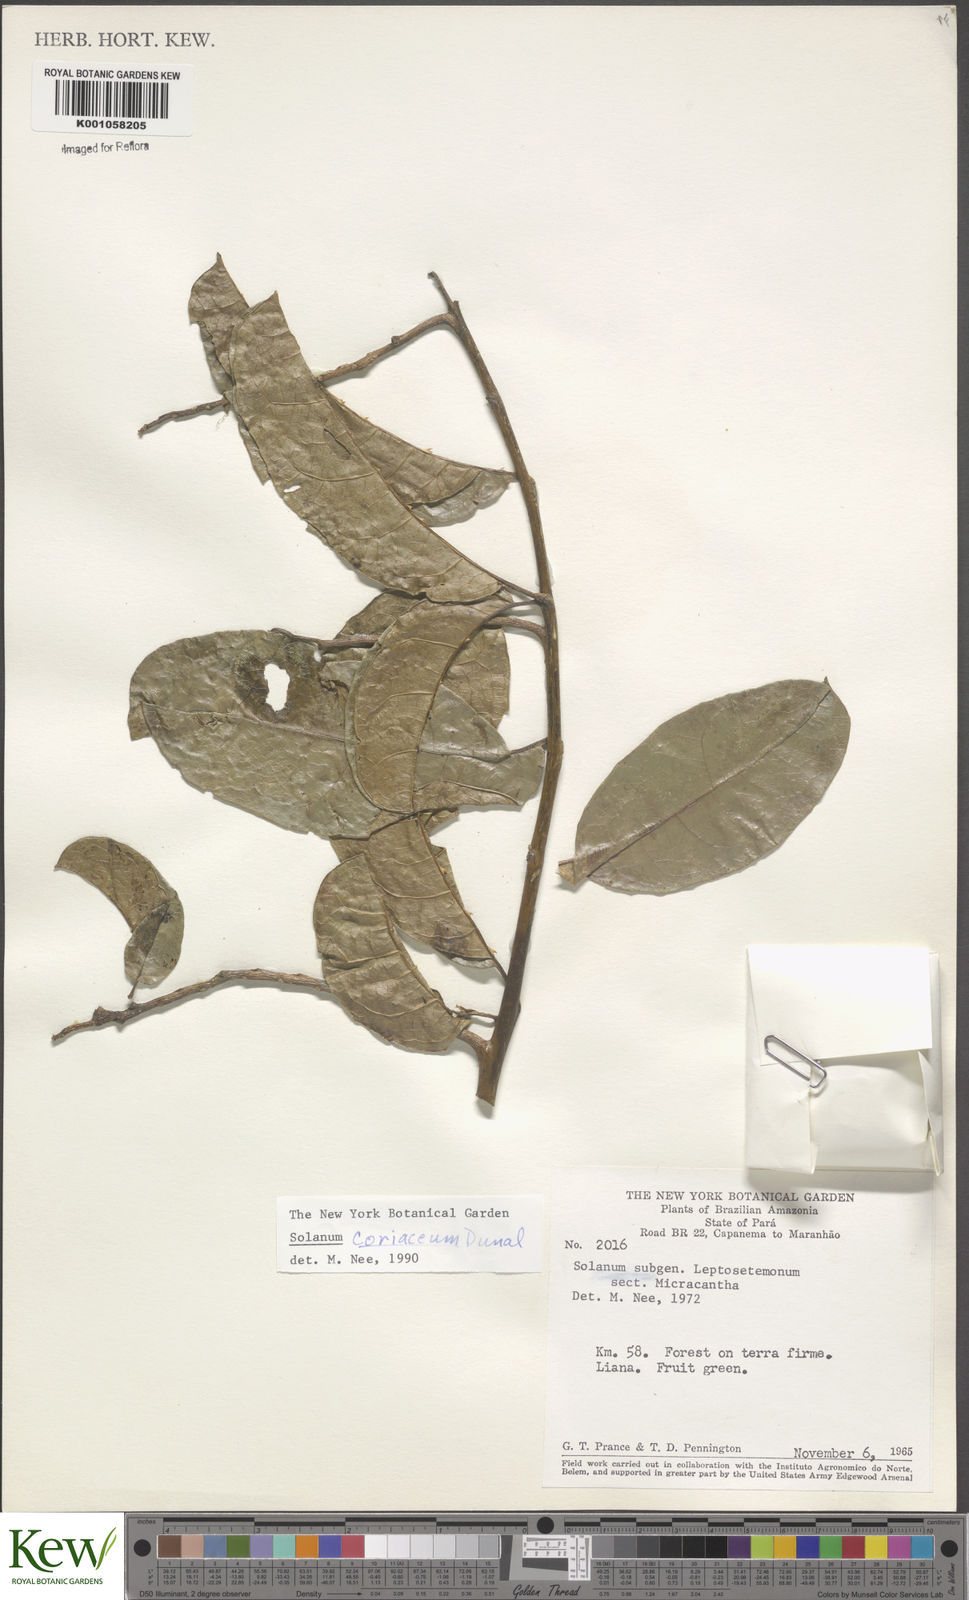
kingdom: Plantae
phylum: Tracheophyta
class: Magnoliopsida
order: Solanales
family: Solanaceae
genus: Solanum
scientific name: Solanum coriaceum
